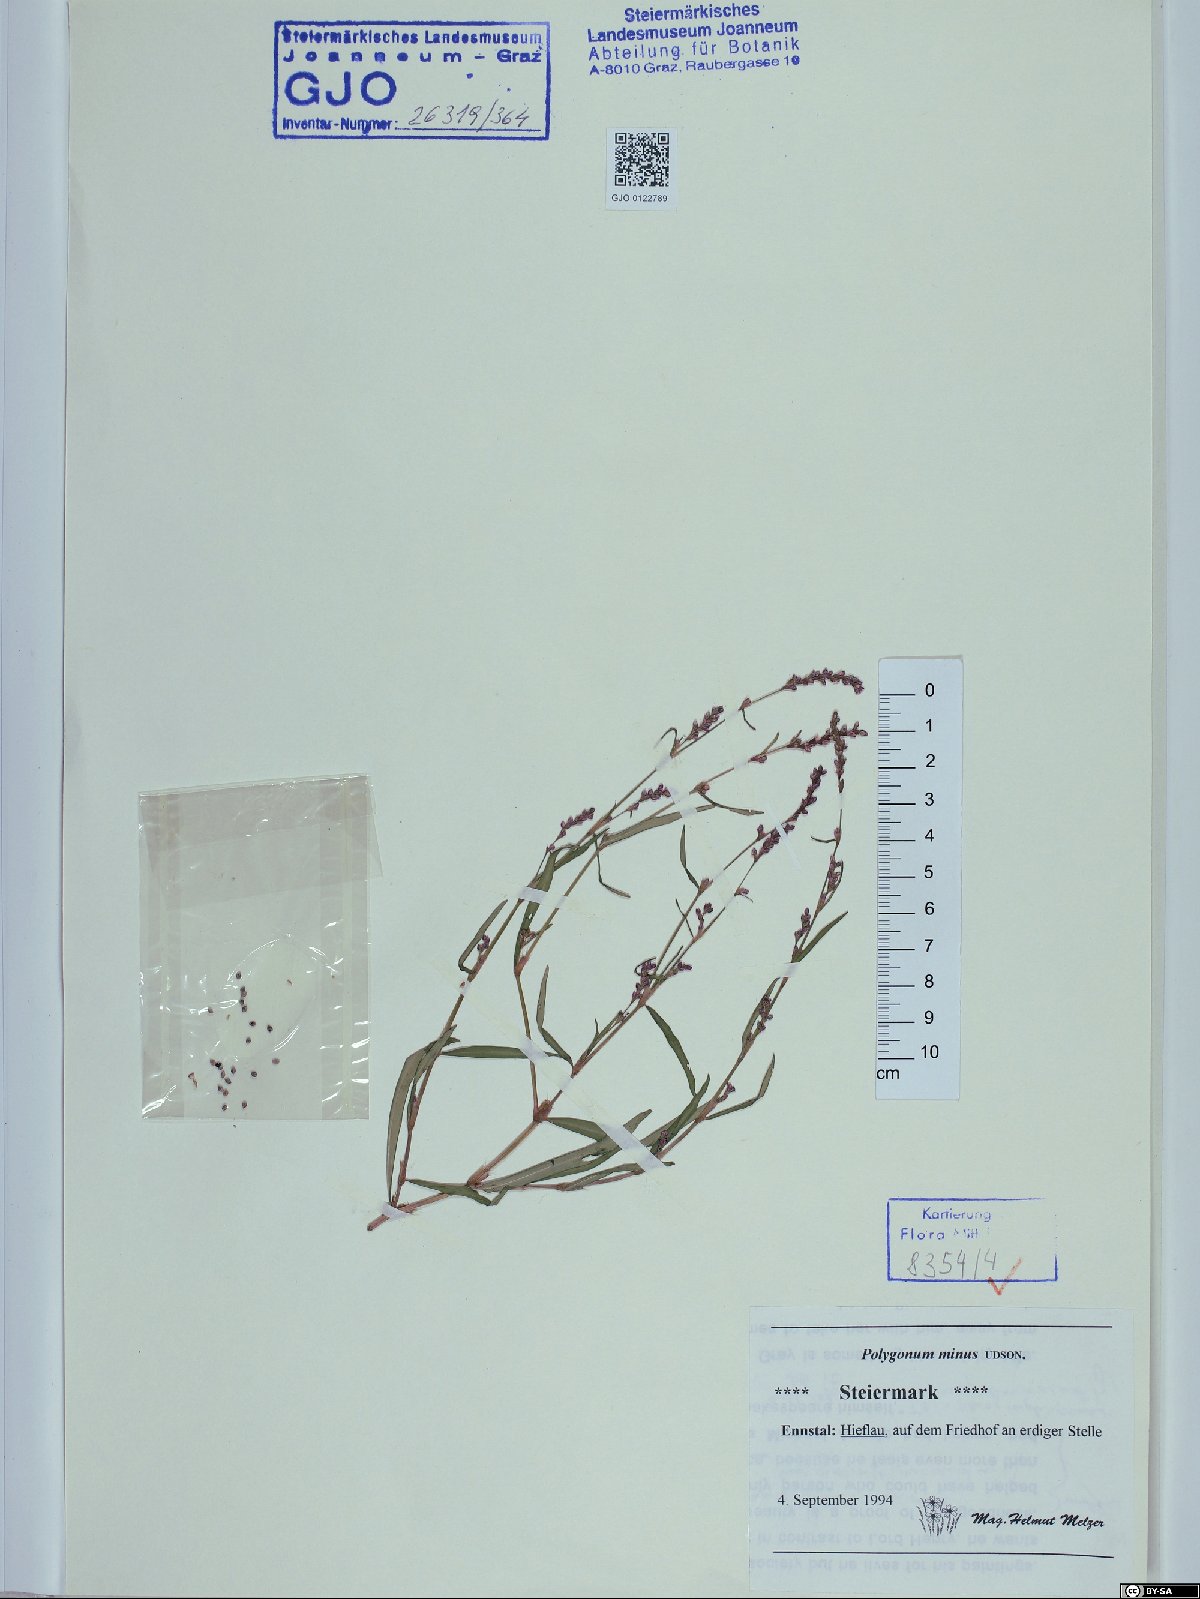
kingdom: Plantae
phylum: Tracheophyta
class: Magnoliopsida
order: Caryophyllales
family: Polygonaceae
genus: Persicaria
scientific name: Persicaria minor
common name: Small water-pepper
